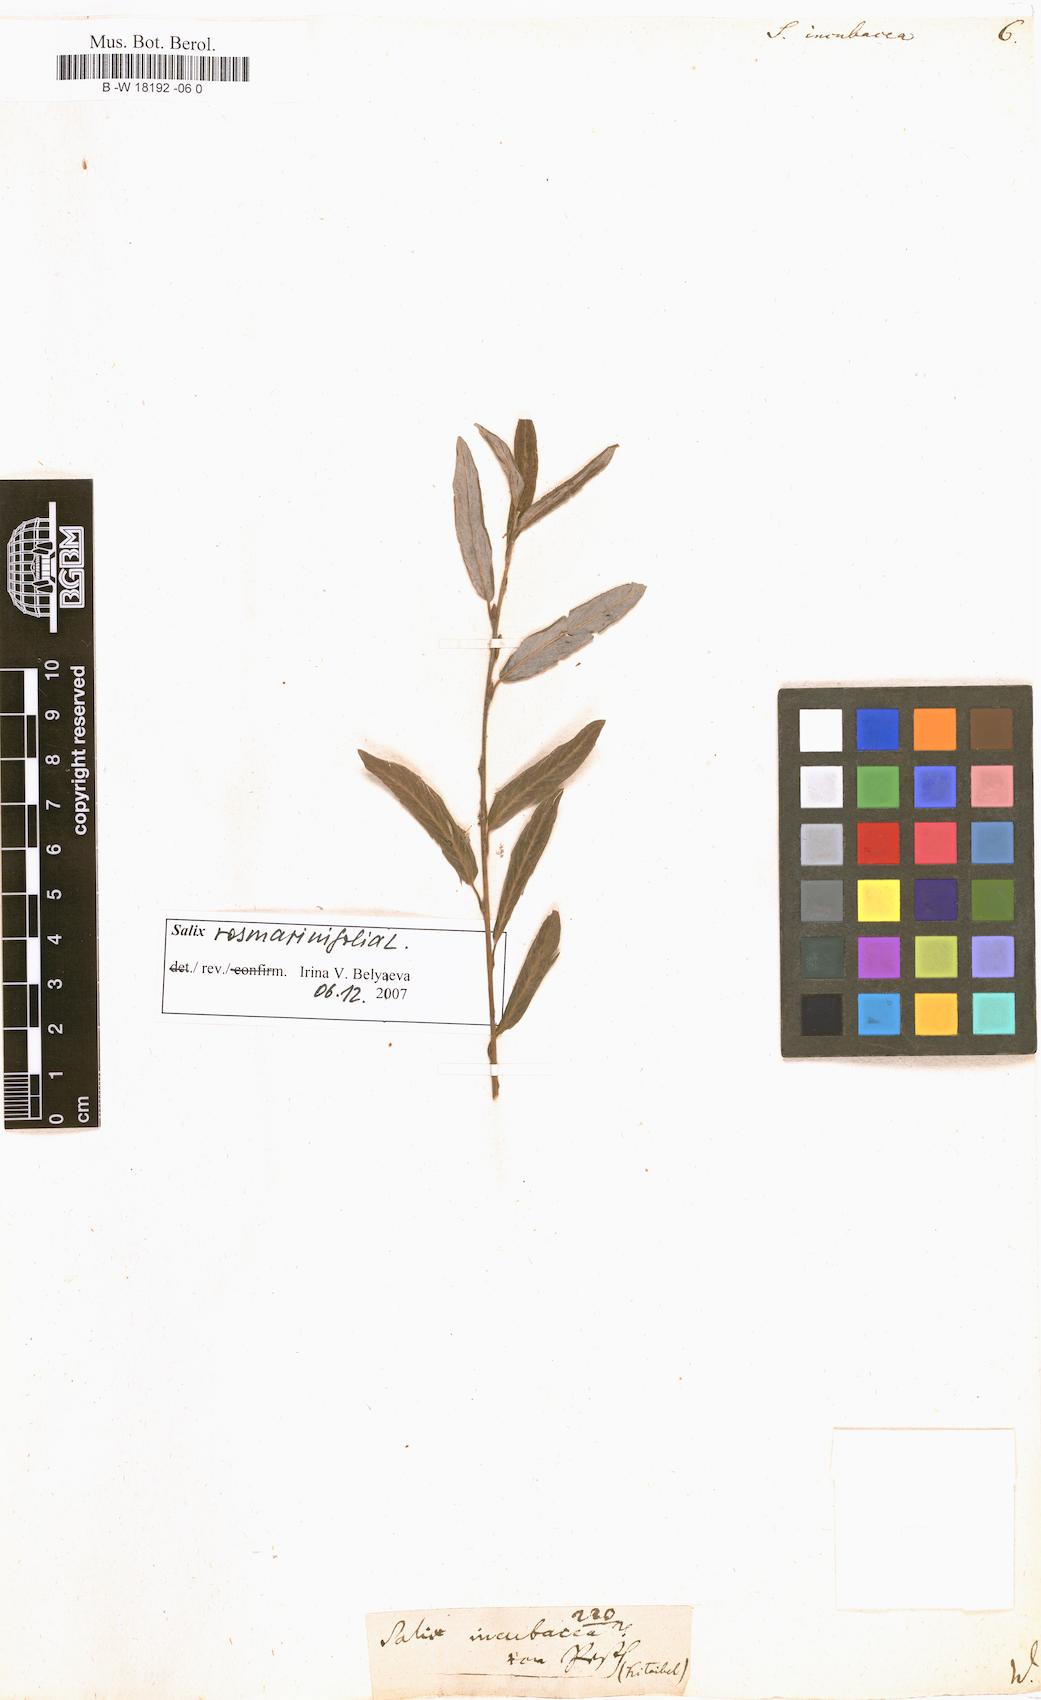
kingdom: Plantae
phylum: Tracheophyta
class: Magnoliopsida
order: Malpighiales
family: Salicaceae
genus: Salix
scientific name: Salix incubacea
